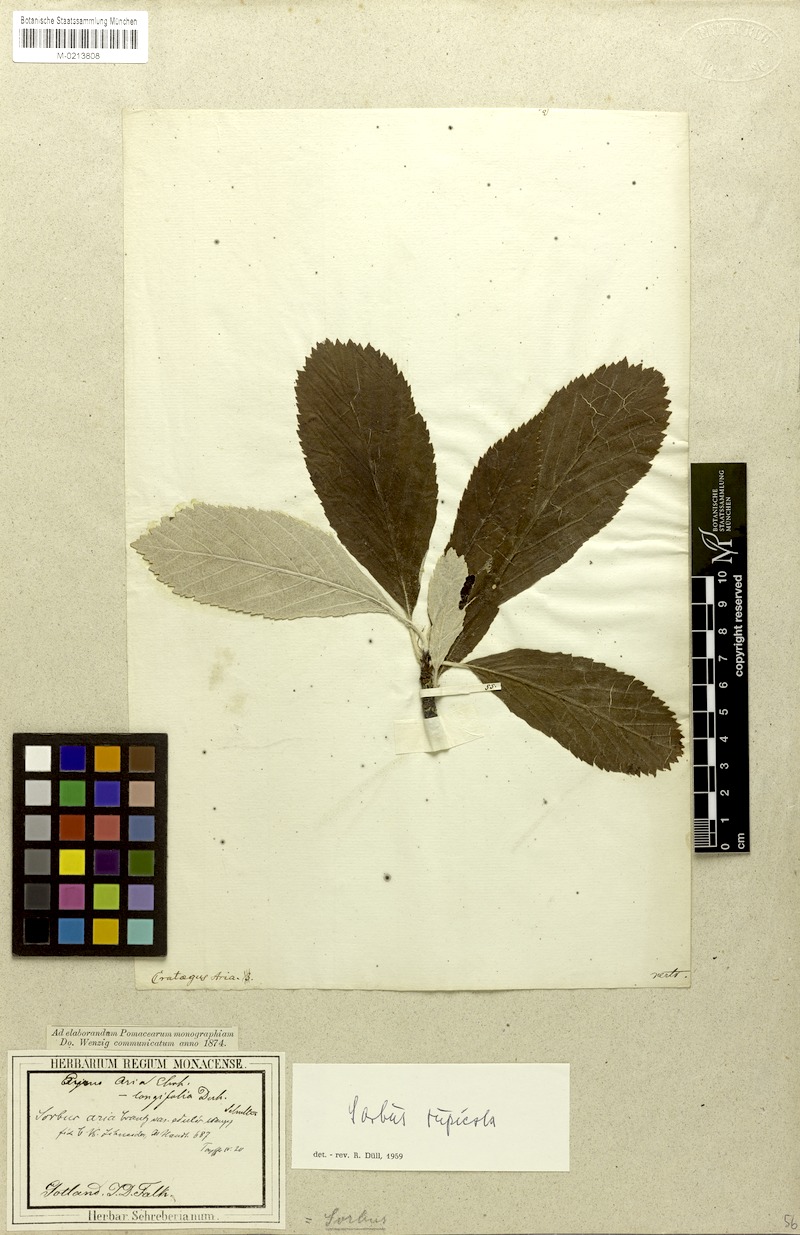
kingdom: Plantae
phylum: Tracheophyta
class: Magnoliopsida
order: Rosales
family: Rosaceae
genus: Aria
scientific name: Aria edulis
